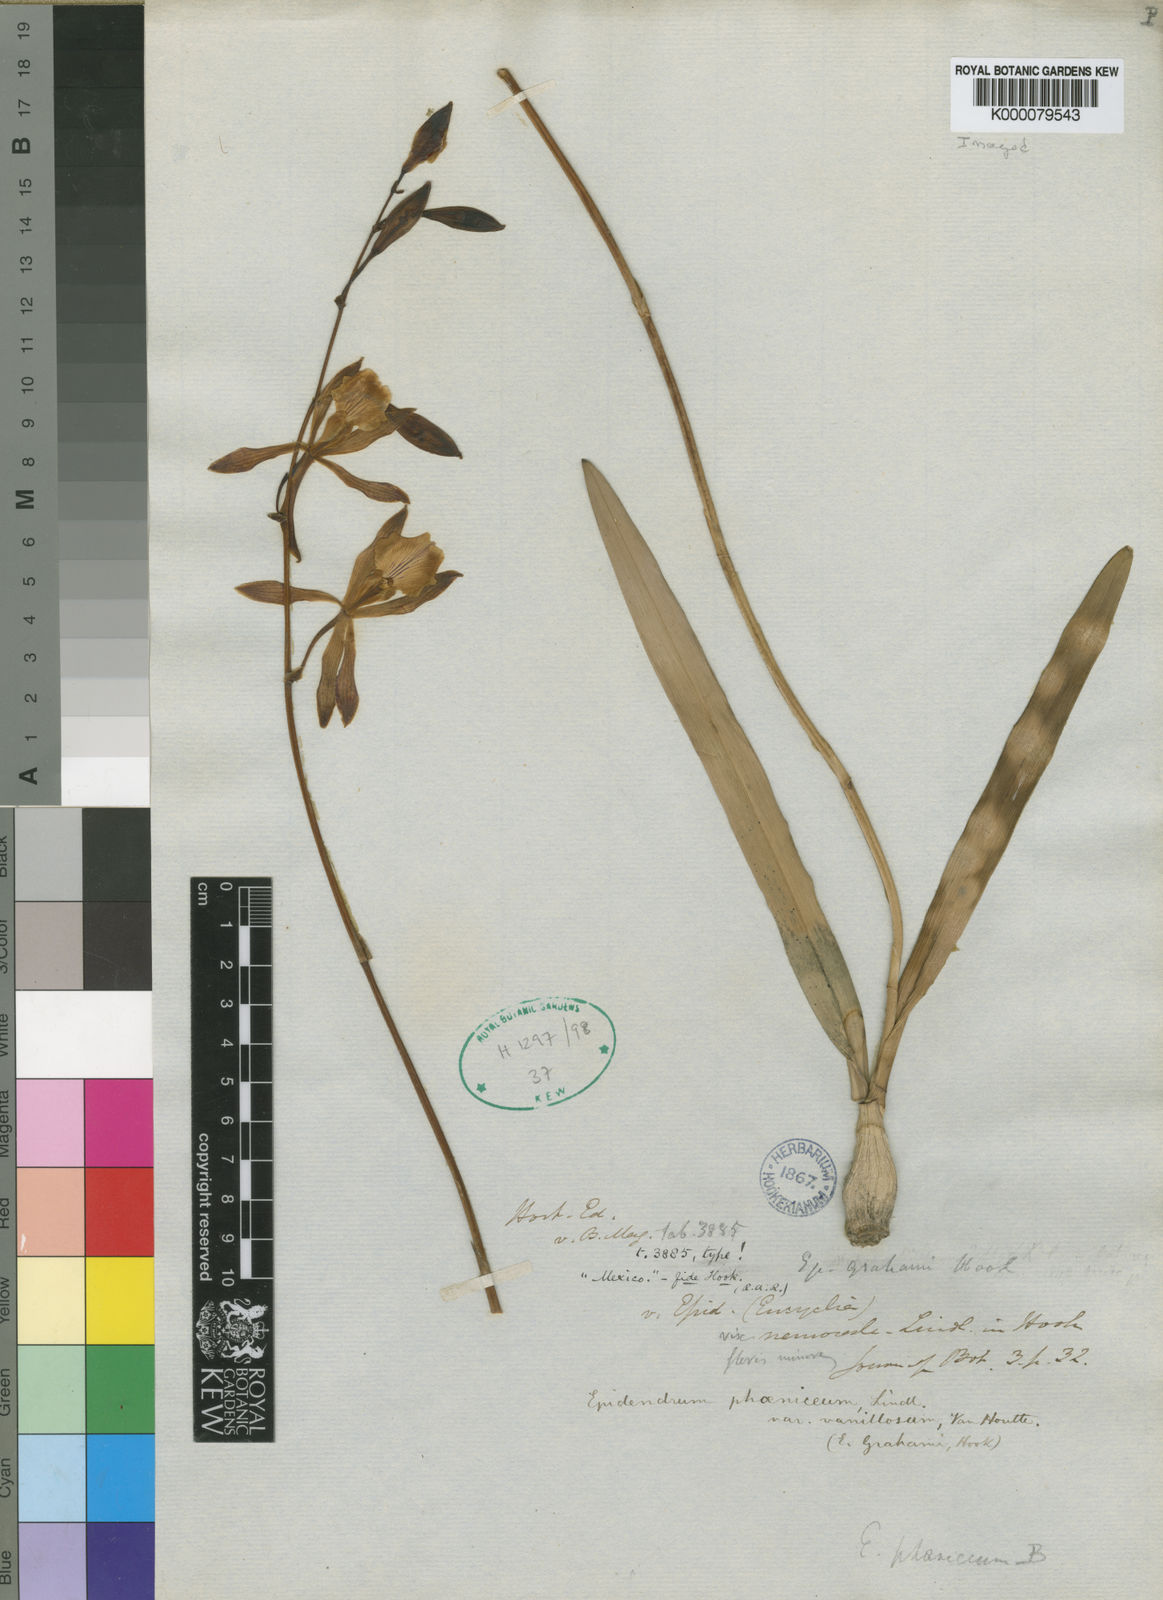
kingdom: Plantae
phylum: Tracheophyta
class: Liliopsida
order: Asparagales
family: Orchidaceae
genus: Encyclia
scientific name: Encyclia phoenicea
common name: Chocolate orchid
